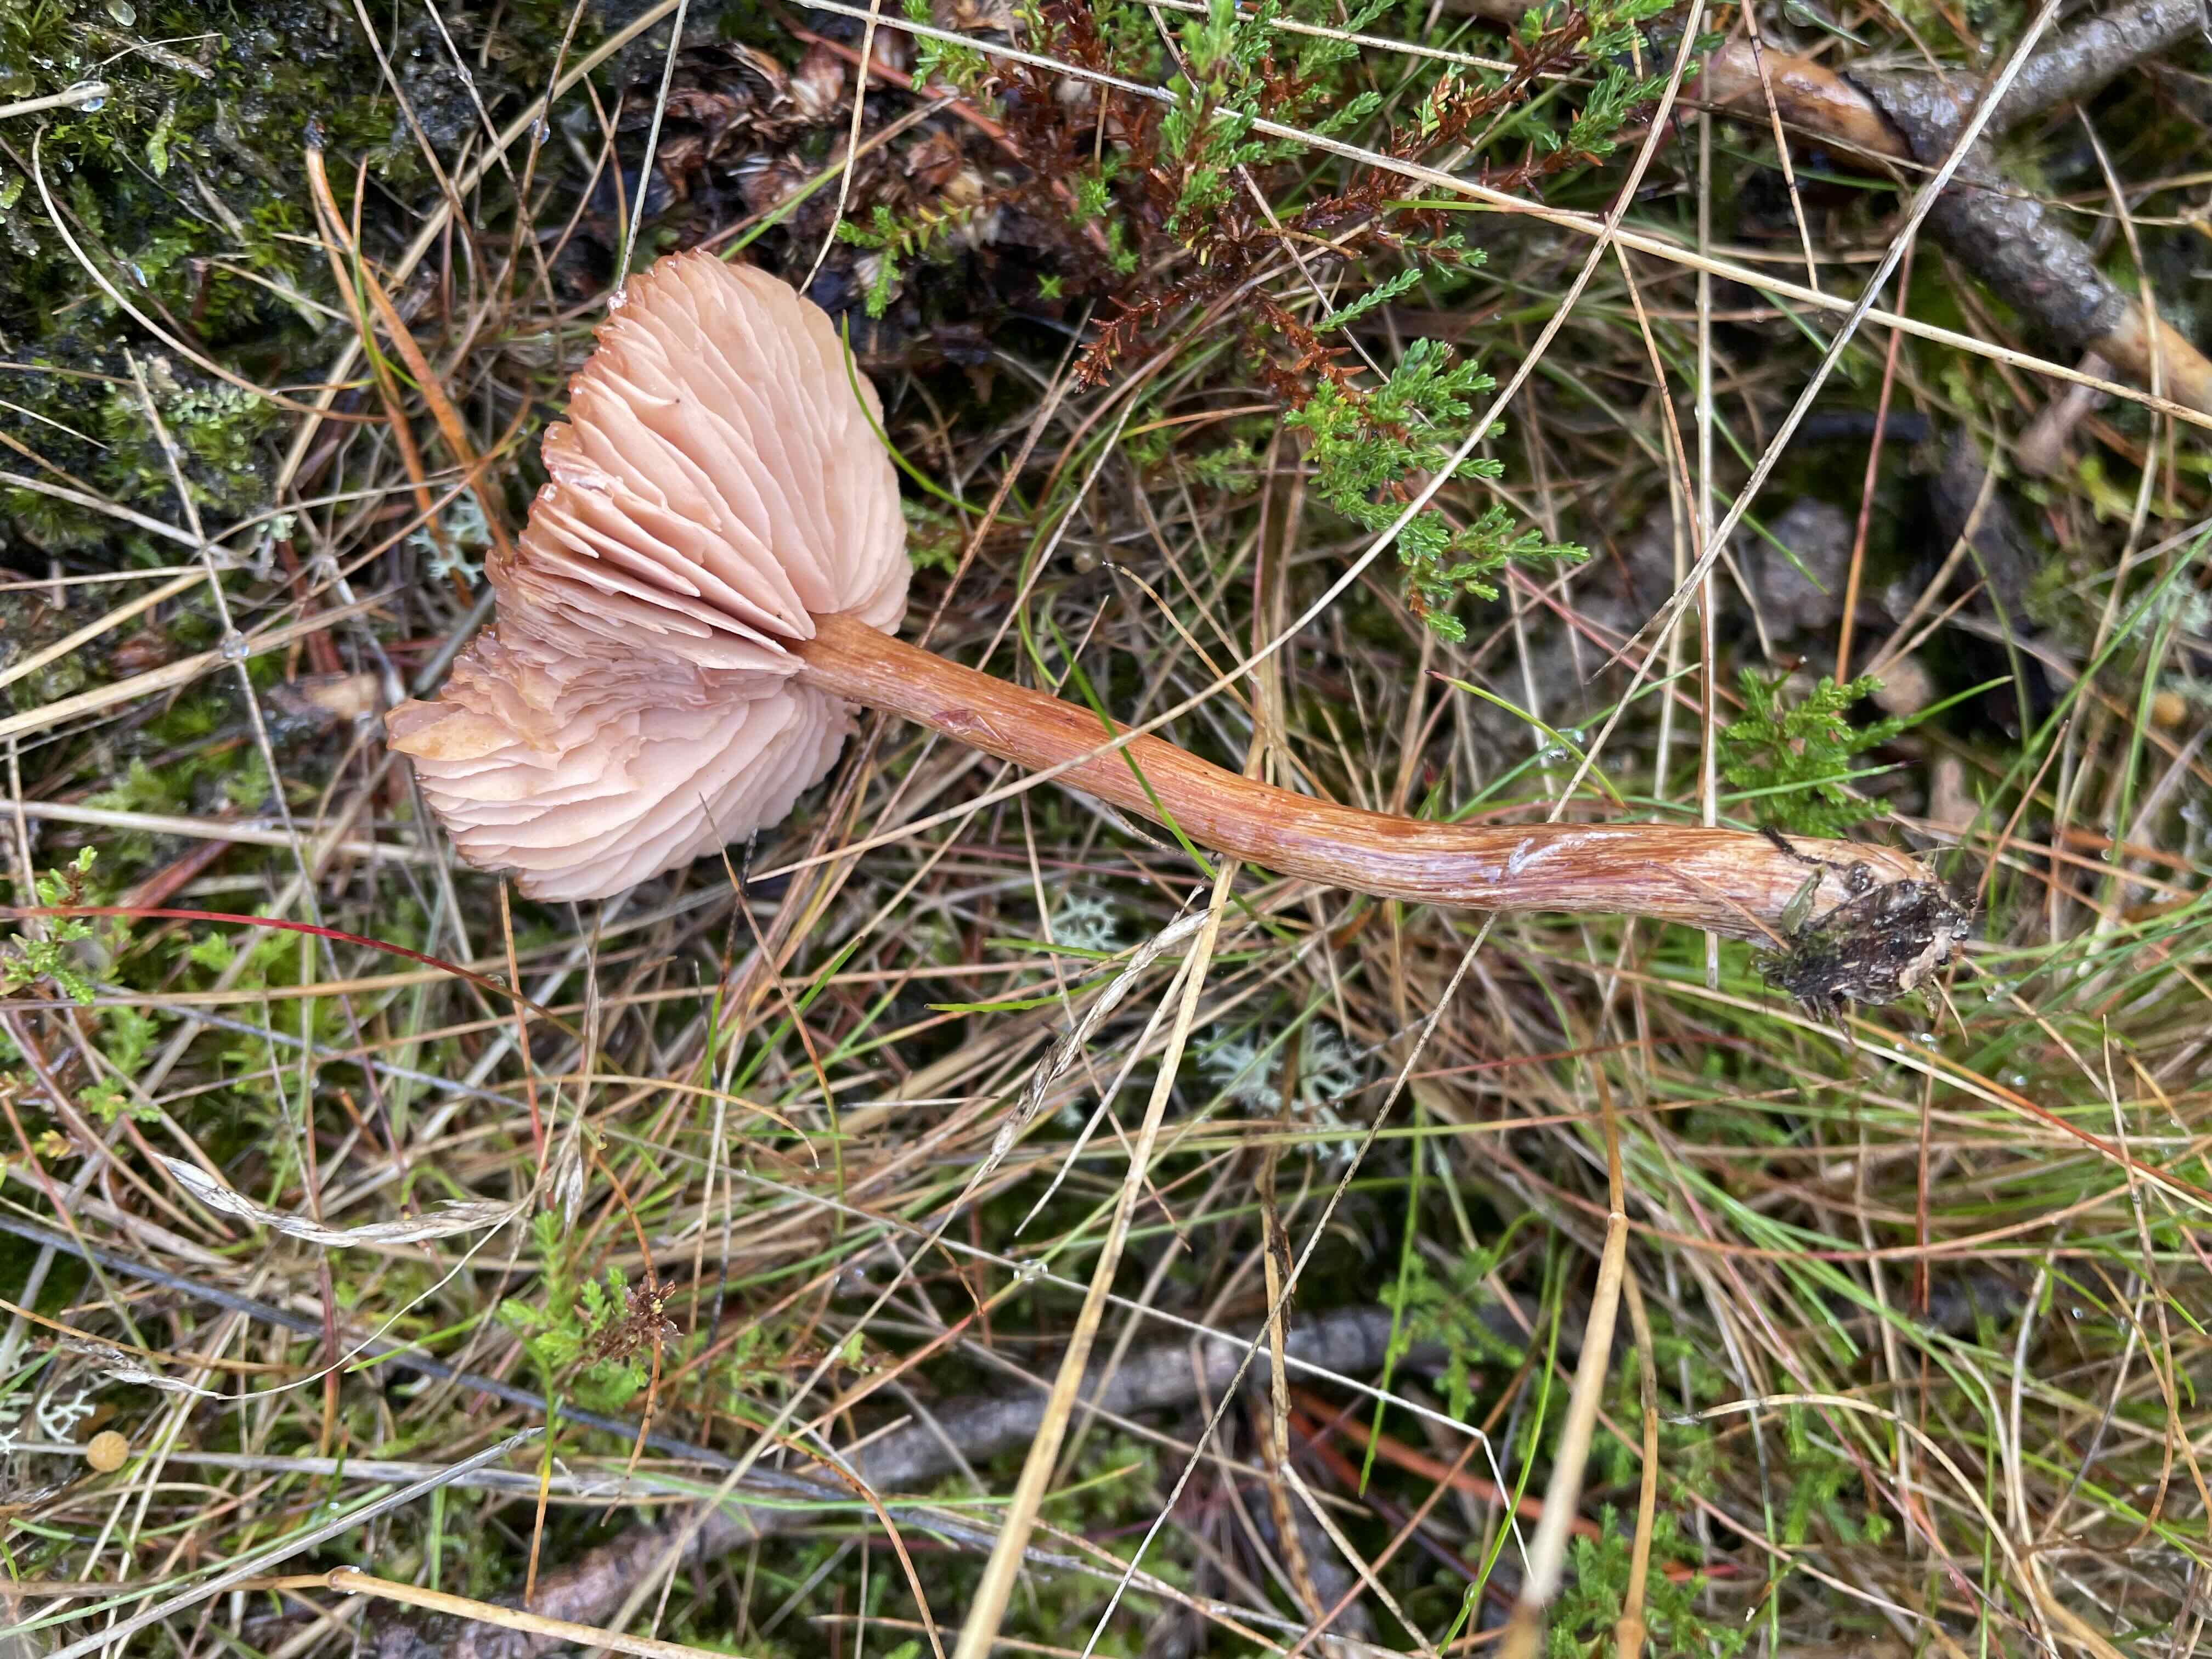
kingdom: Fungi
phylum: Basidiomycota
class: Agaricomycetes
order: Agaricales
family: Hydnangiaceae
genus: Laccaria
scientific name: Laccaria proxima
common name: stor ametysthat
